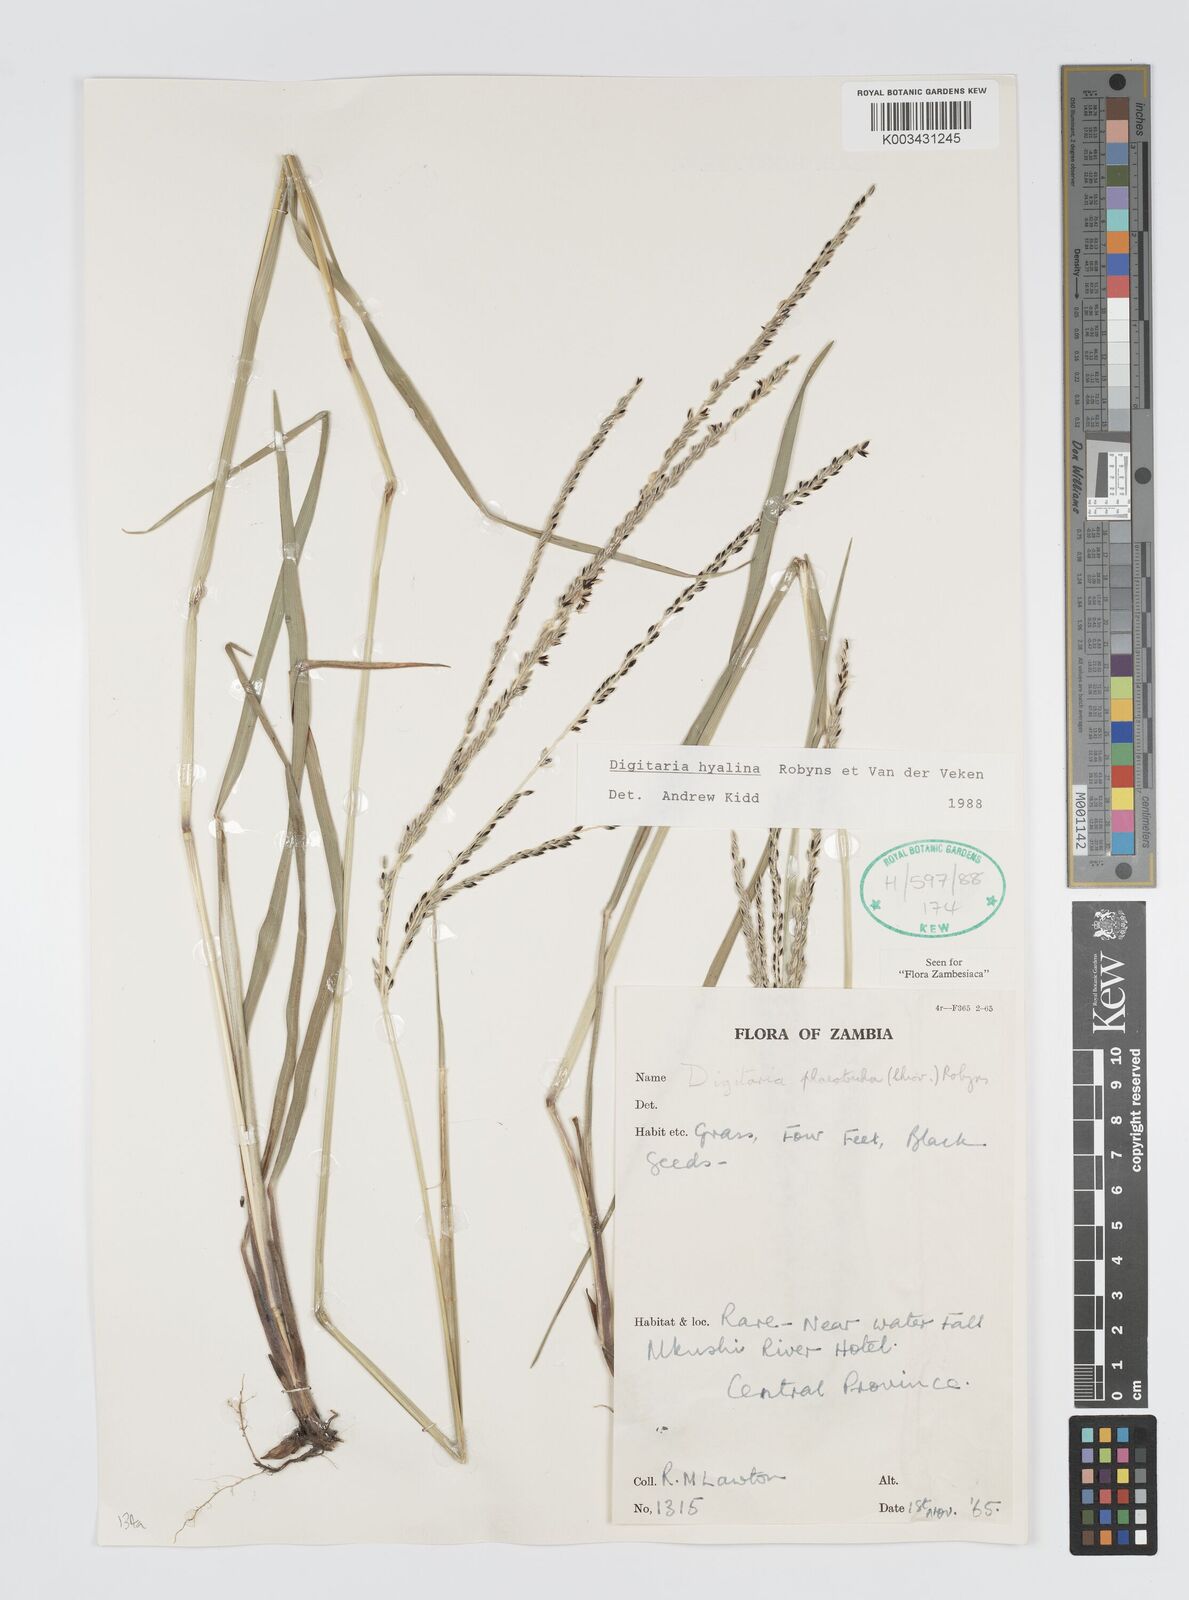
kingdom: Plantae
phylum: Tracheophyta
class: Liliopsida
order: Poales
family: Poaceae
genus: Digitaria
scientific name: Digitaria hyalina
